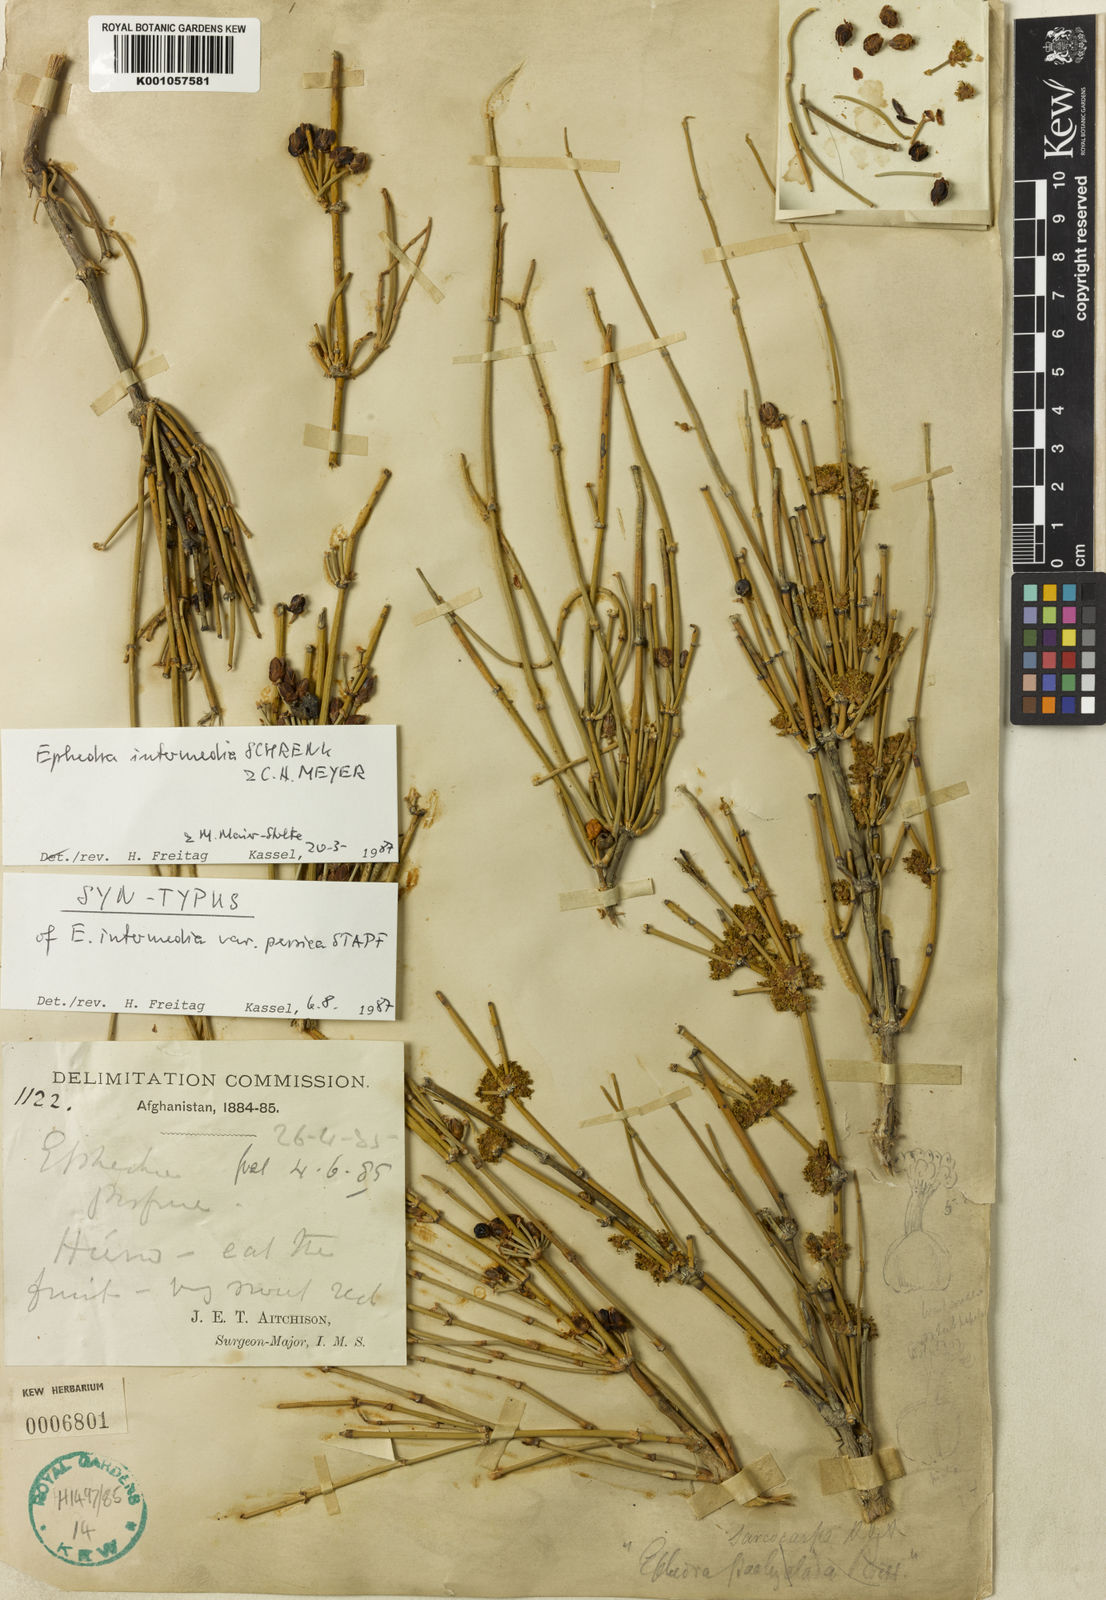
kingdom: Plantae
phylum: Tracheophyta
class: Gnetopsida
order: Ephedrales
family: Ephedraceae
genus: Ephedra
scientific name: Ephedra intermedia
